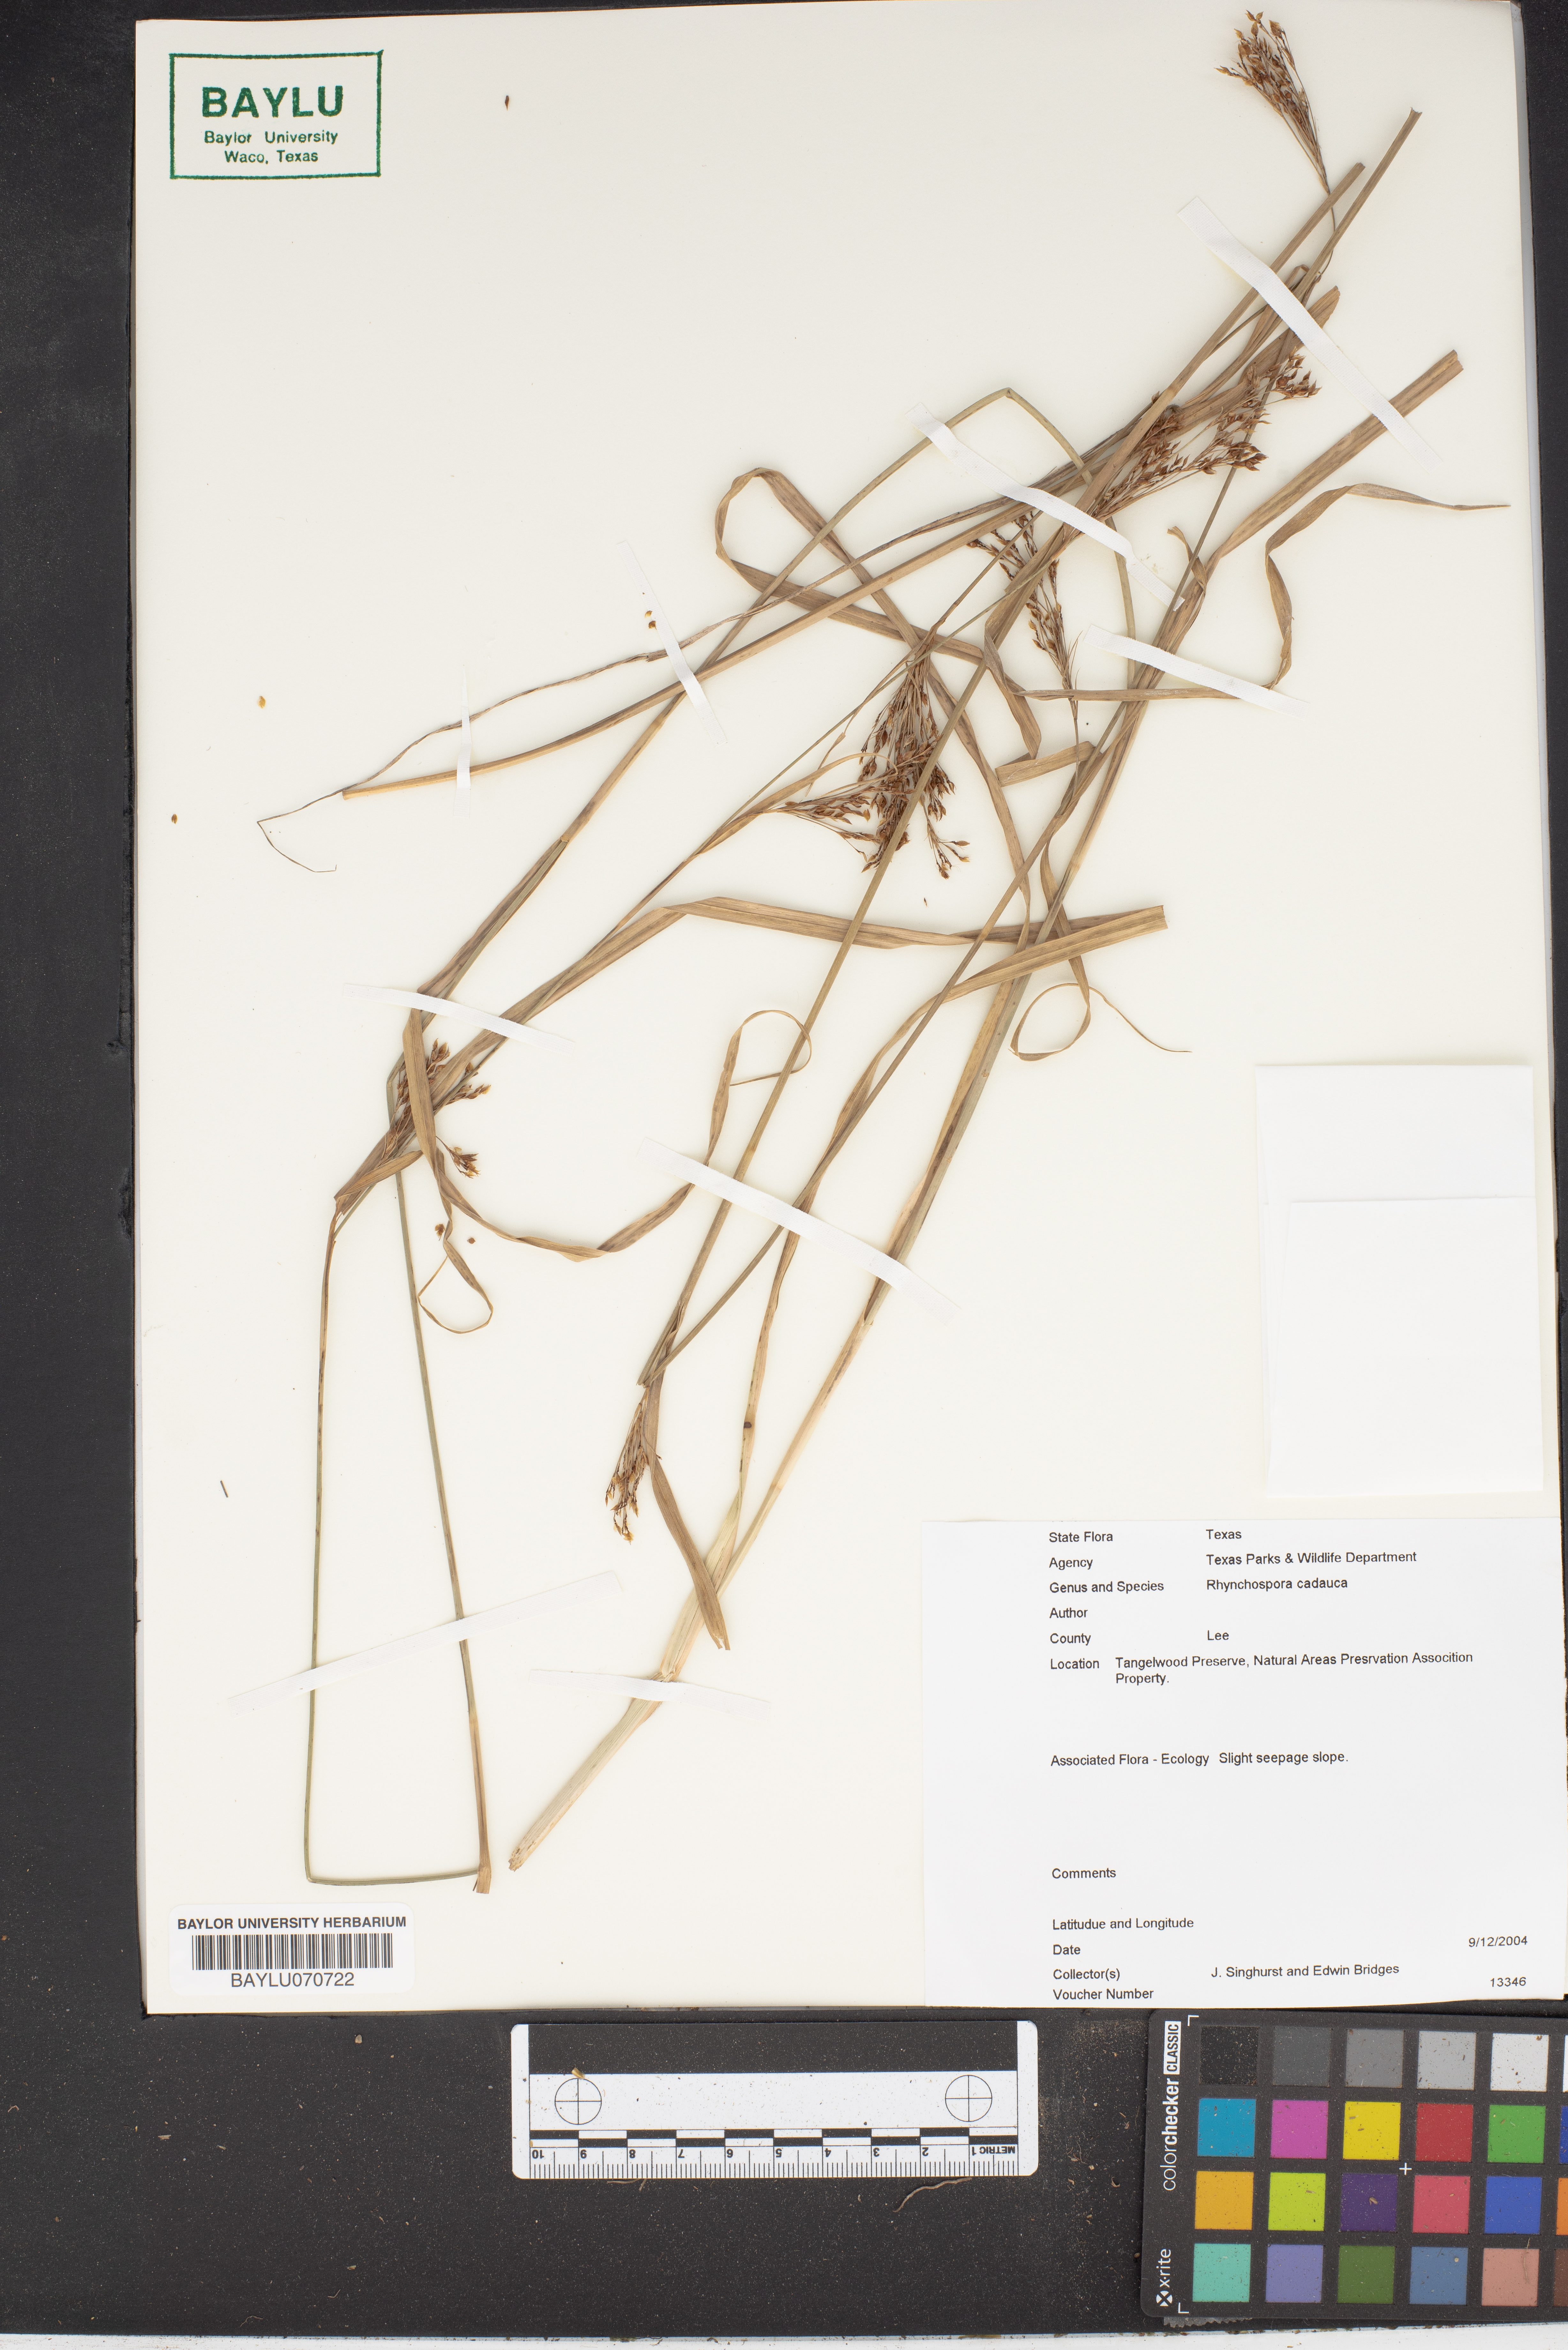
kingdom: Plantae
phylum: Tracheophyta
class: Liliopsida
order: Poales
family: Cyperaceae
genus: Rhynchospora
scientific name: Rhynchospora caduca
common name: Anglestem beaksedge
